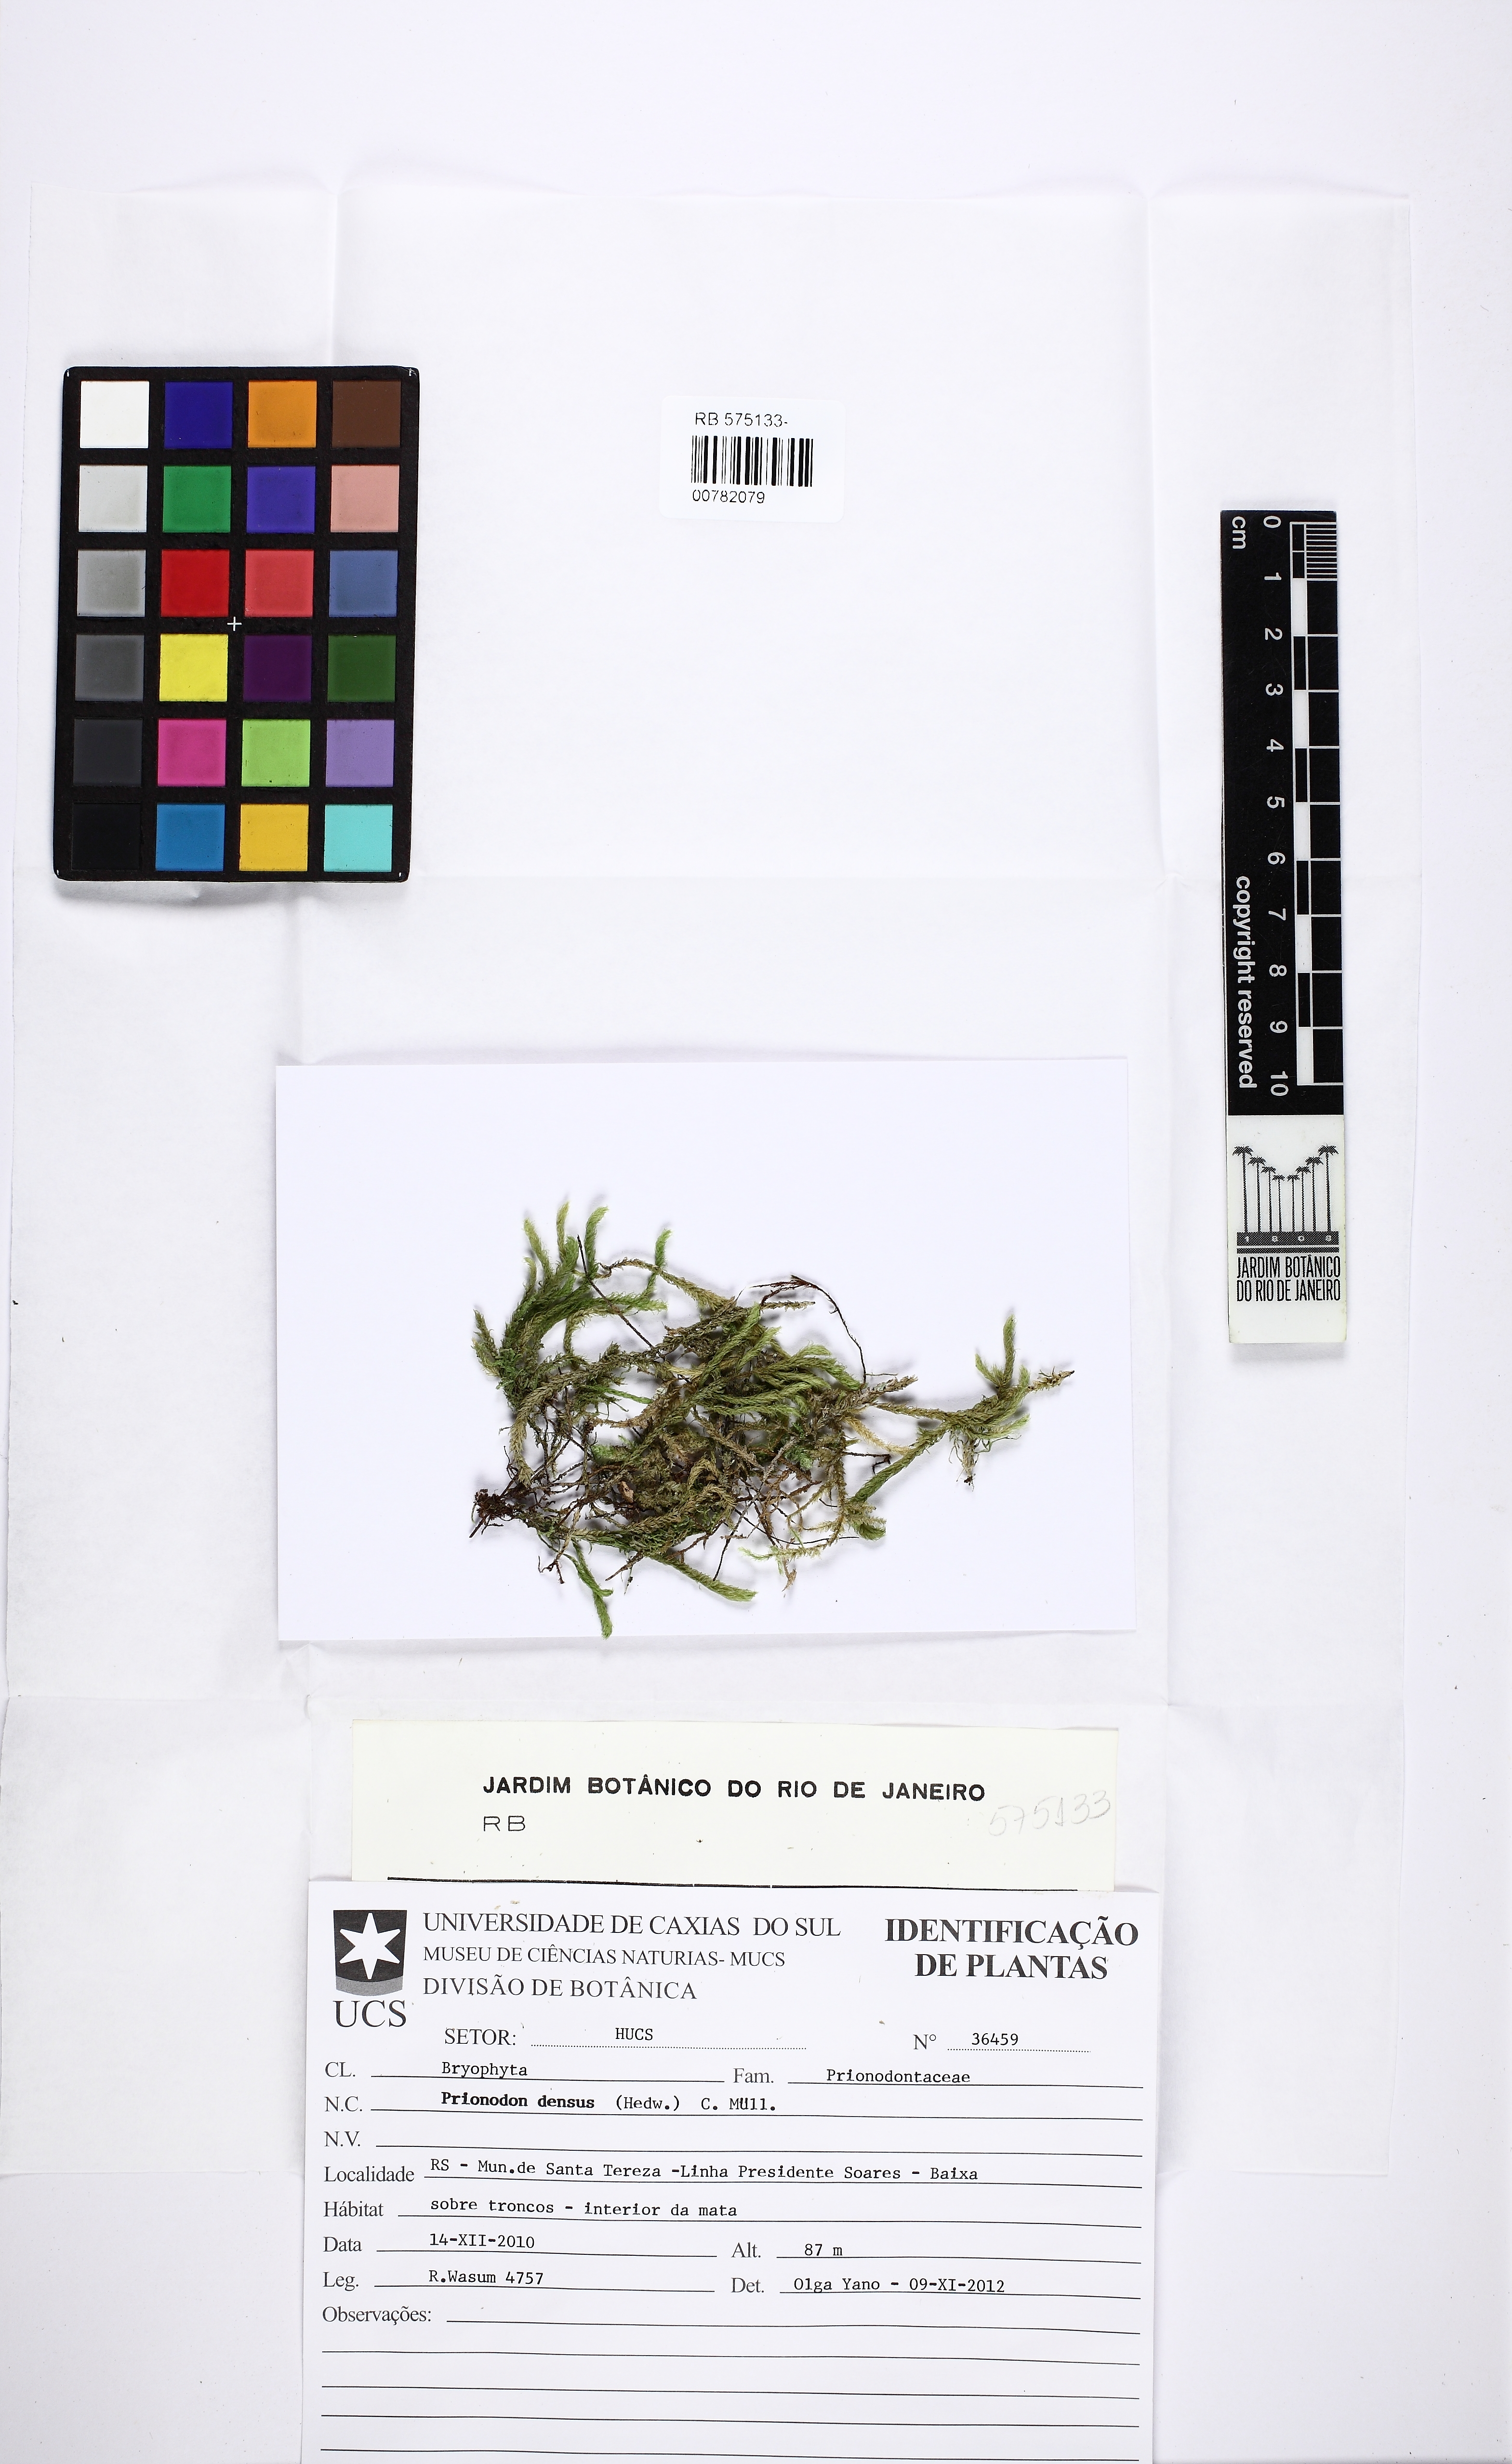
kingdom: Plantae
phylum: Bryophyta
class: Bryopsida
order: Hypnales
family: Prionodontaceae
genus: Prionodon
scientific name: Prionodon densus
